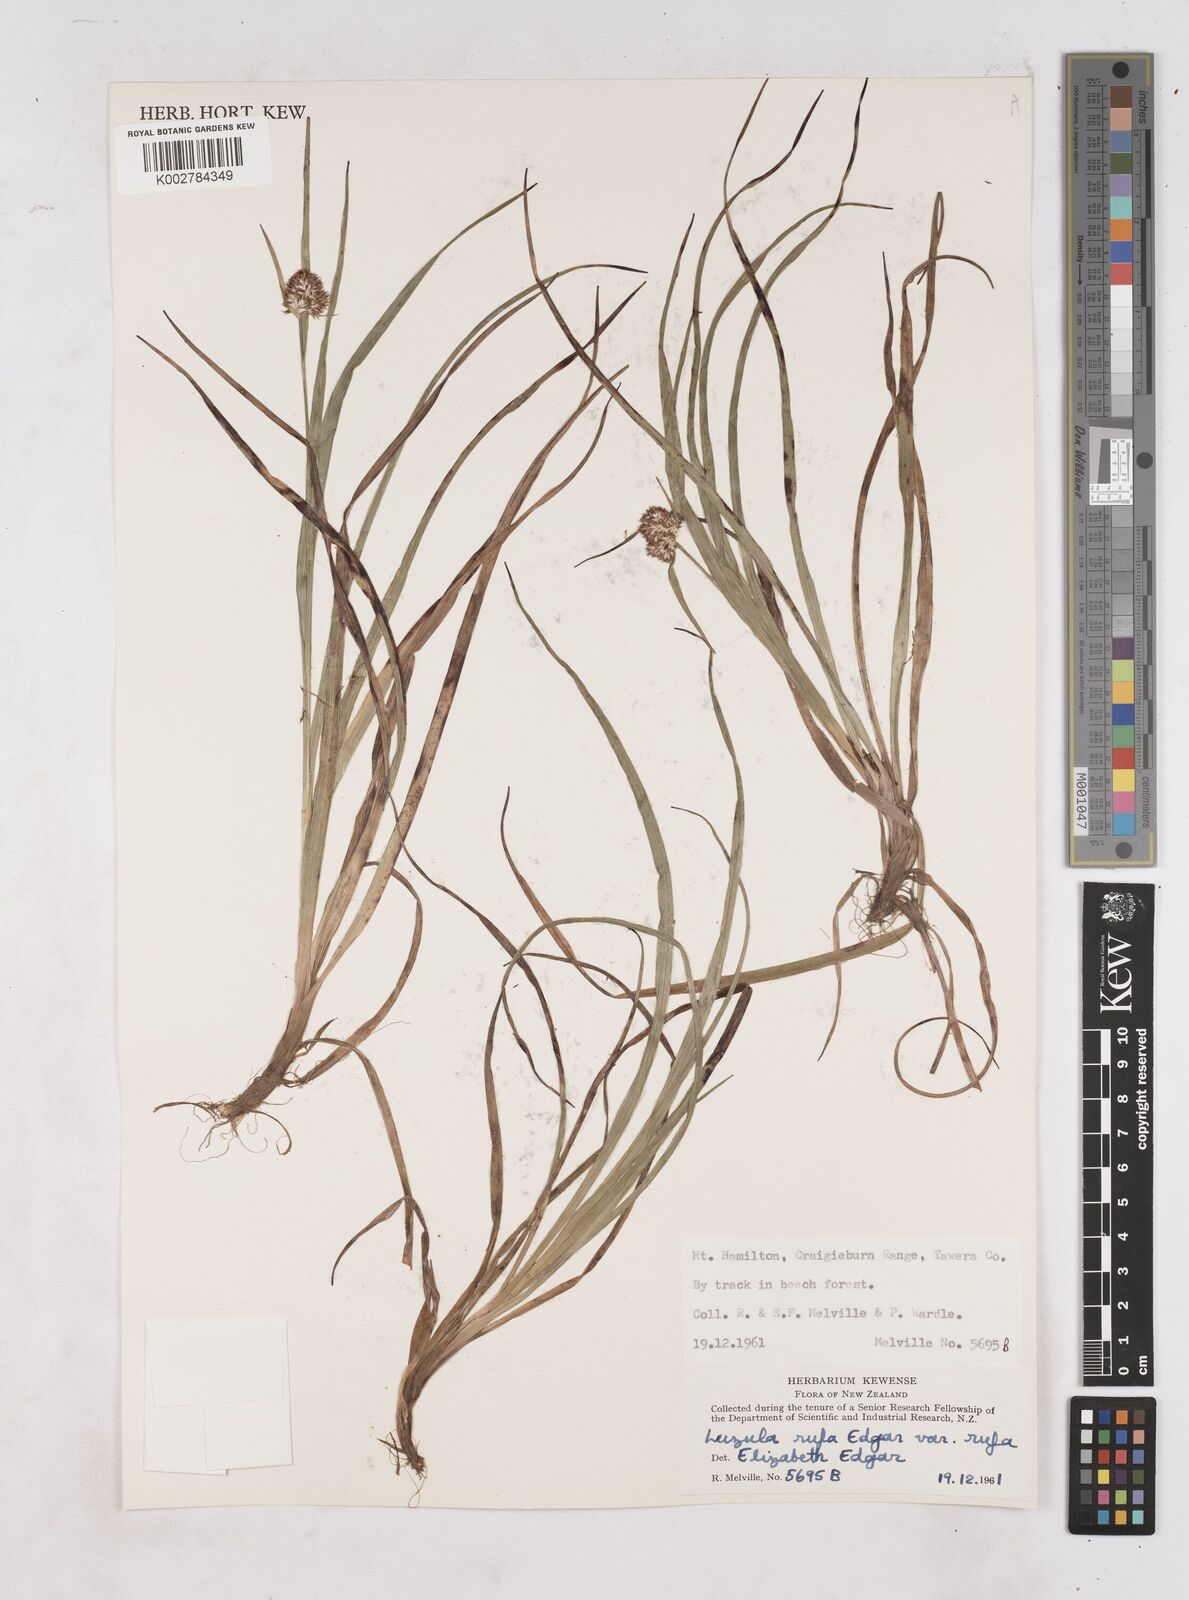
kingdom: Plantae
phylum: Tracheophyta
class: Liliopsida
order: Poales
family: Juncaceae
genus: Luzula
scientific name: Luzula rufa
